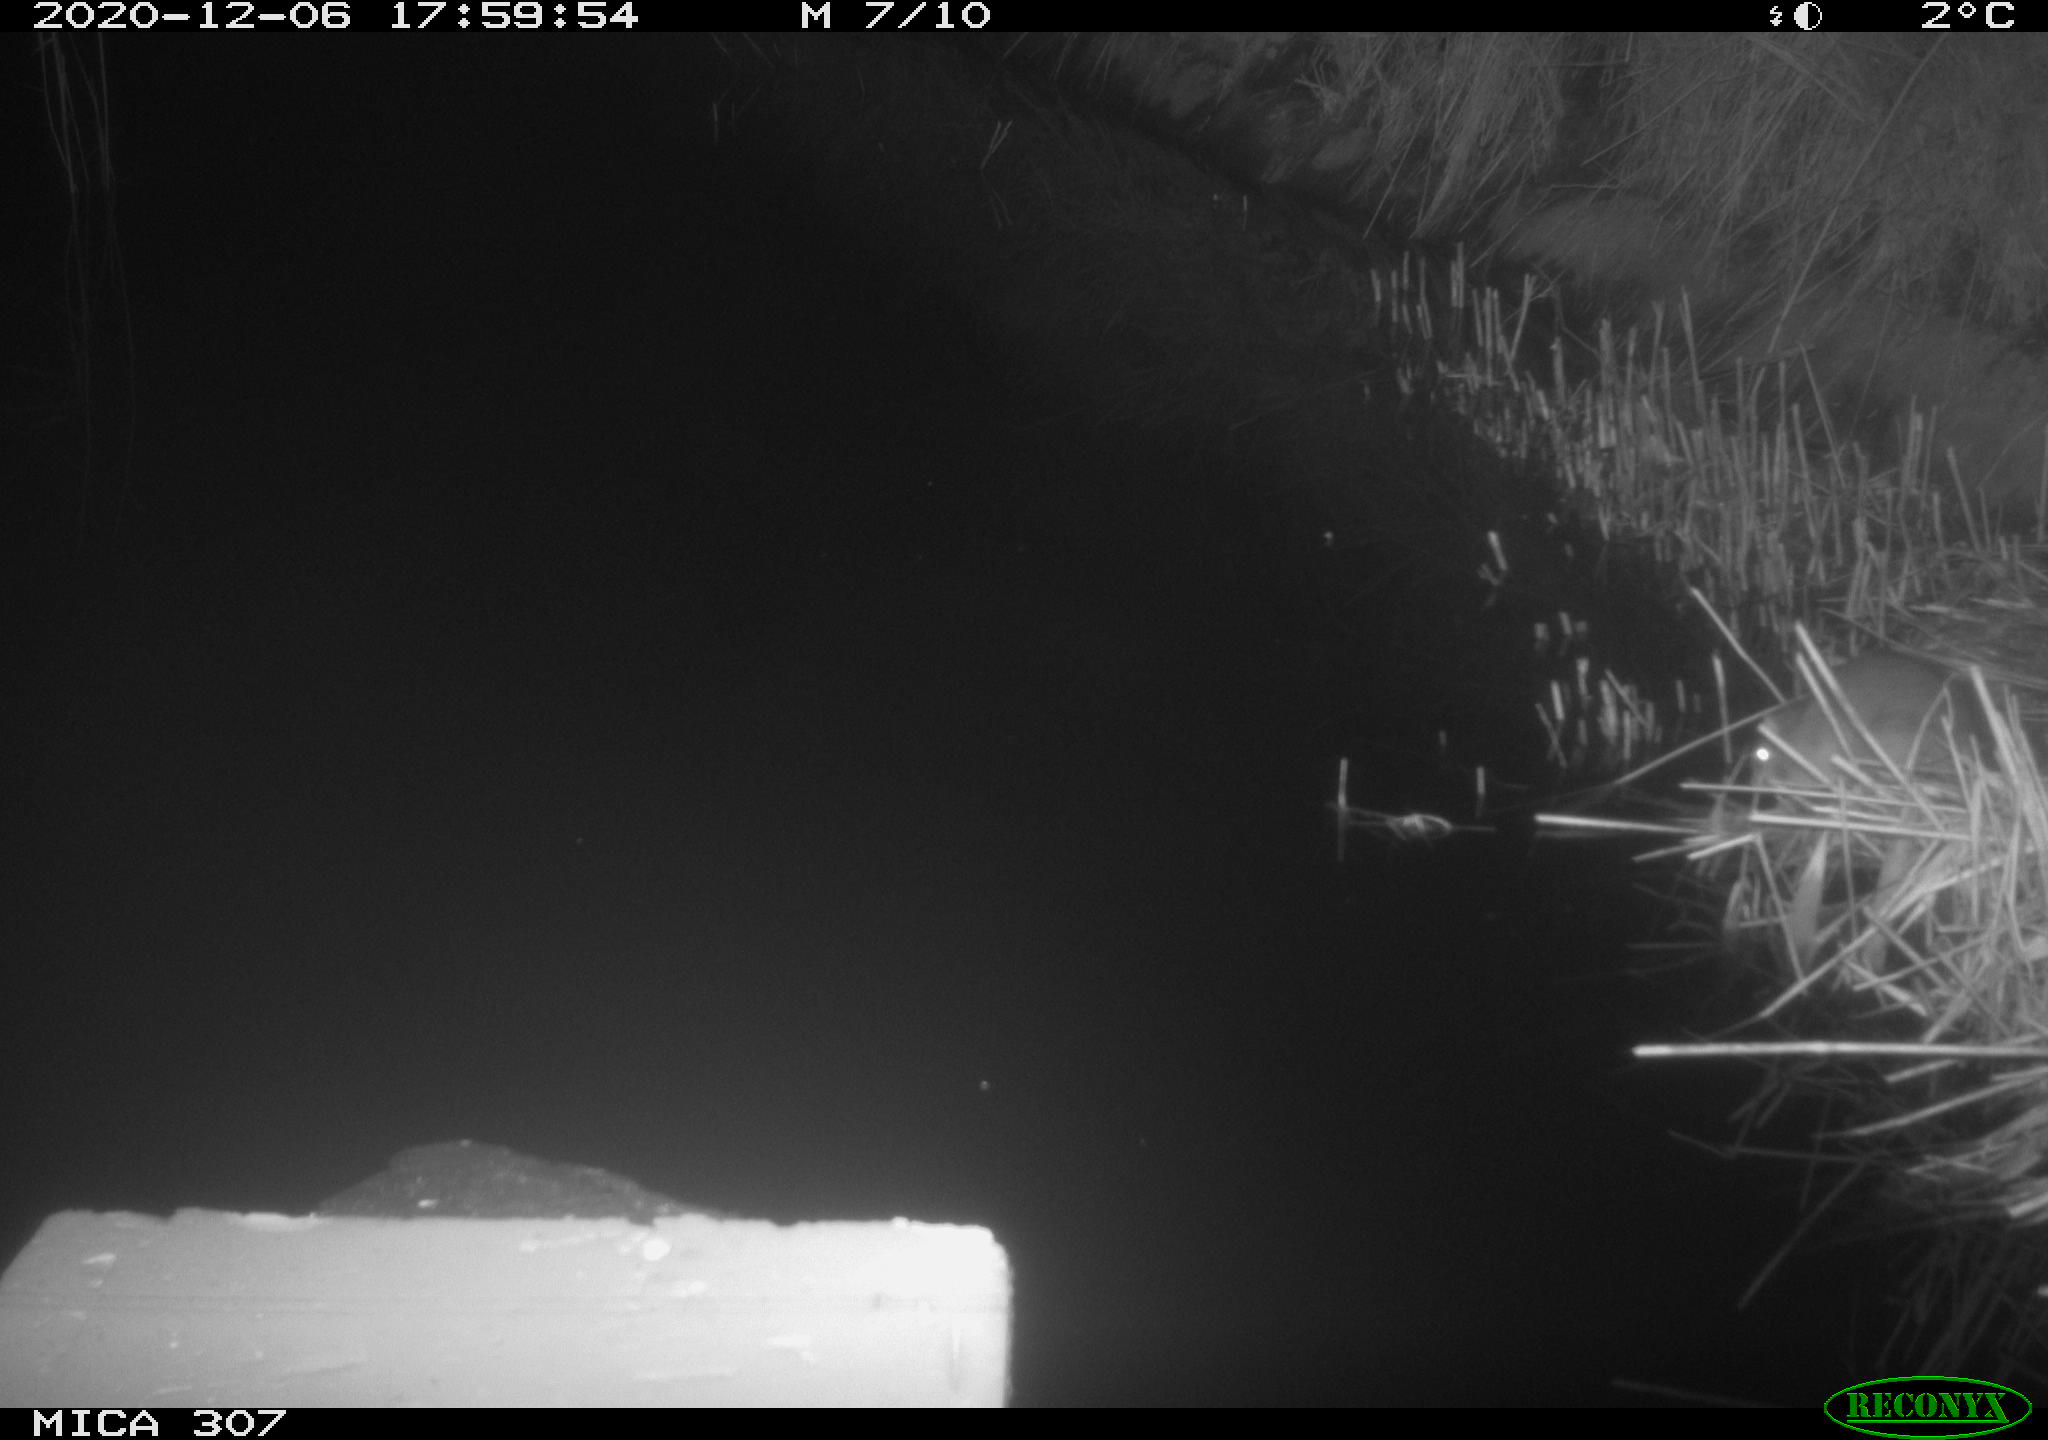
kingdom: Animalia
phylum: Chordata
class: Mammalia
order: Rodentia
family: Muridae
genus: Rattus
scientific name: Rattus norvegicus
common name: Brown rat
